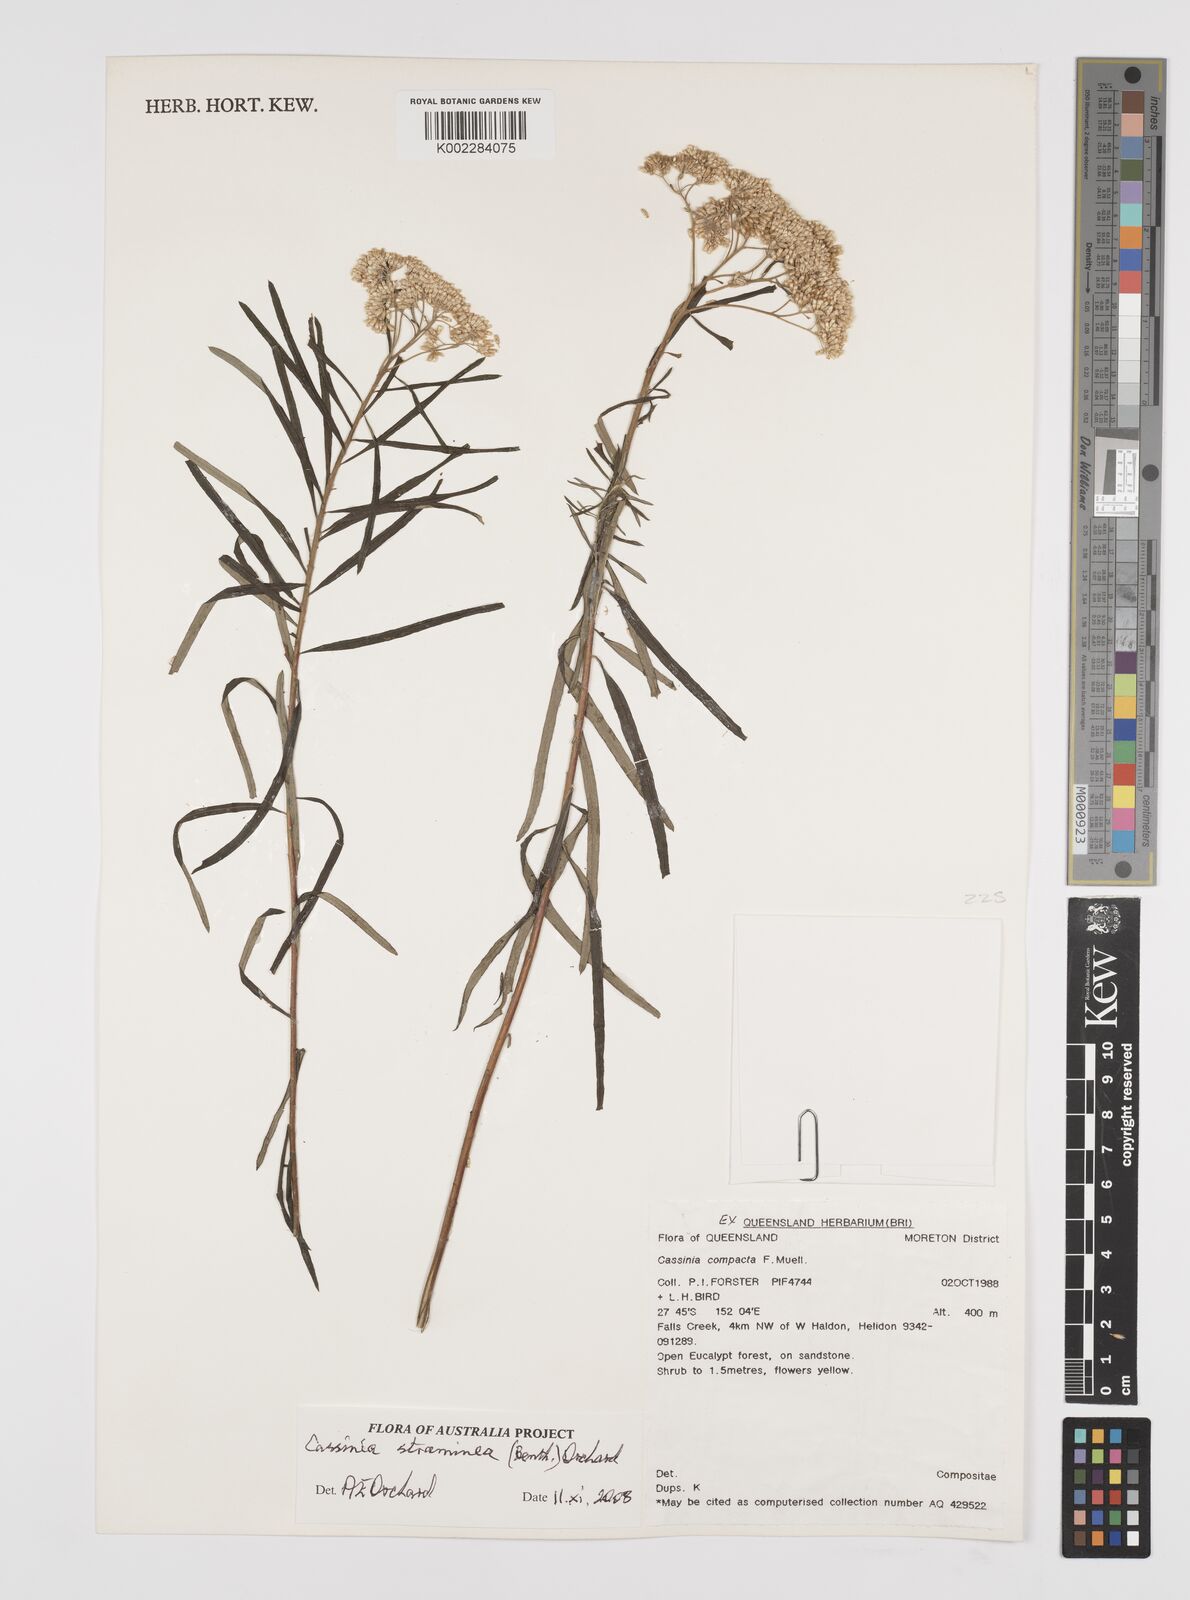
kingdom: Plantae
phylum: Tracheophyta
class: Magnoliopsida
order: Asterales
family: Asteraceae
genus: Cassinia
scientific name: Cassinia straminea
